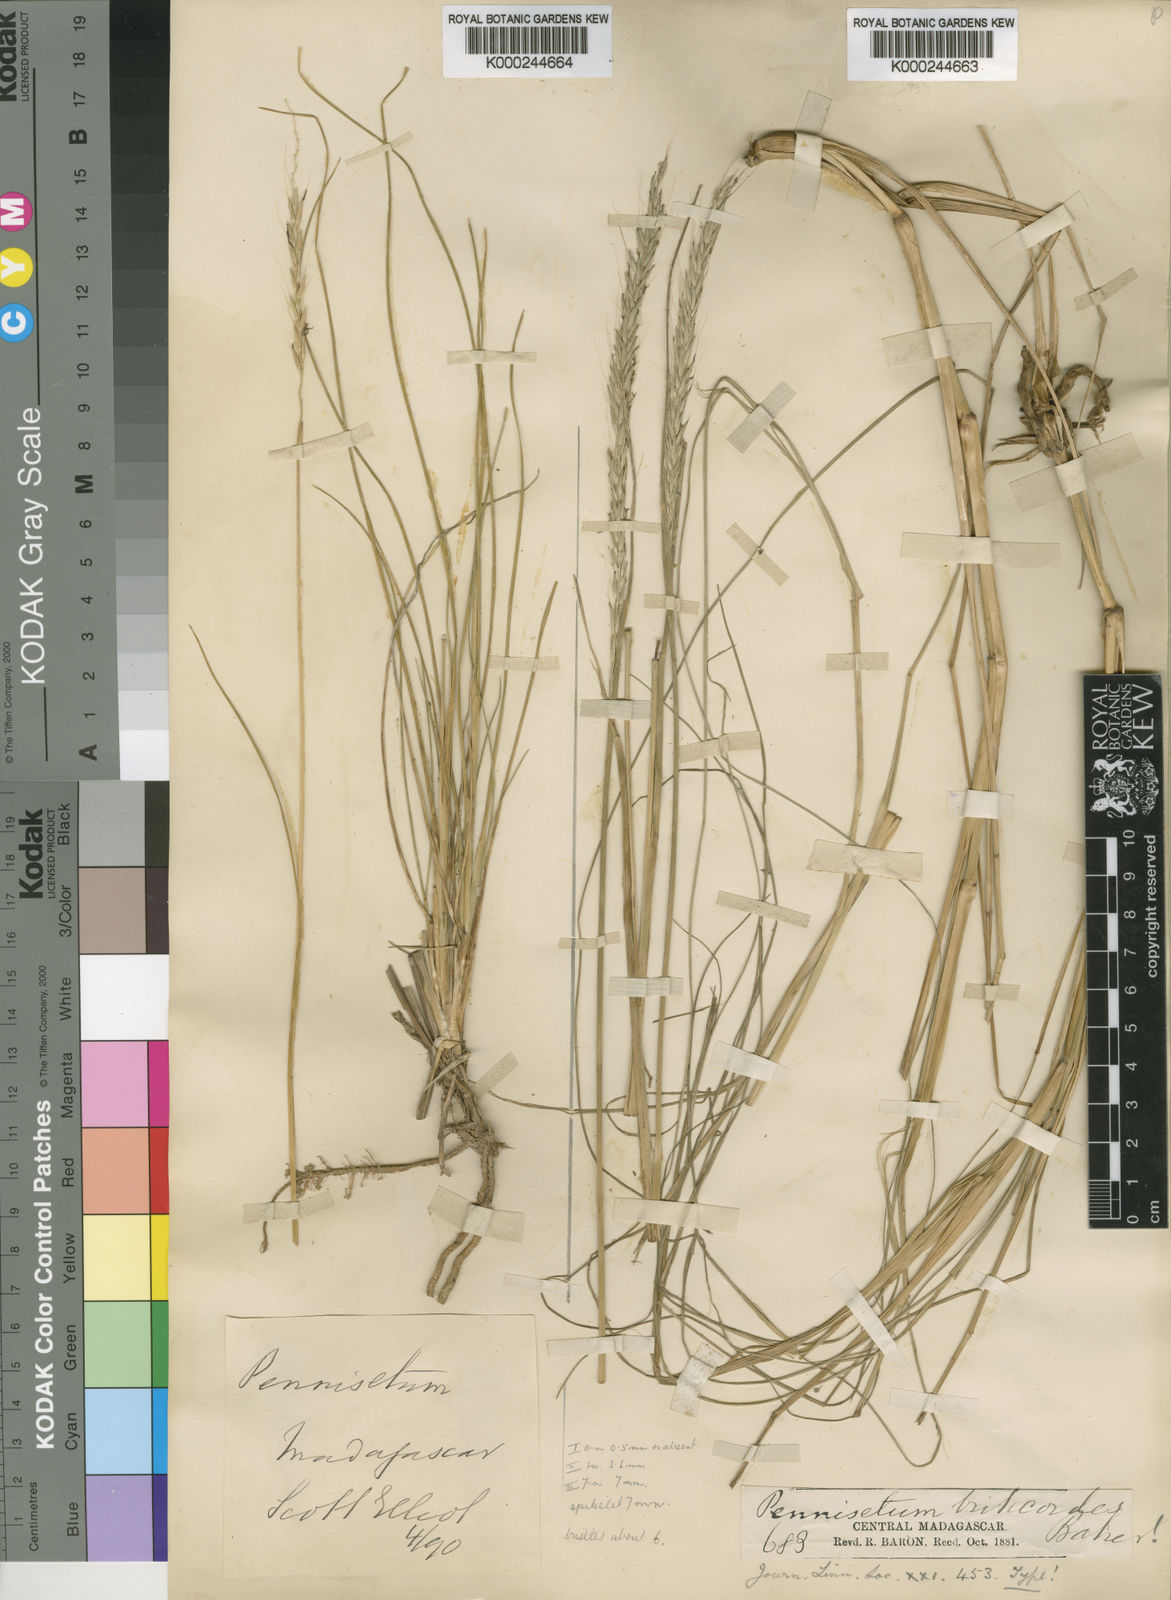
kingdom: Plantae
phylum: Tracheophyta
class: Liliopsida
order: Poales
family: Poaceae
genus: Cenchrus
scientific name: Cenchrus hohenackeri
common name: Moya grass
